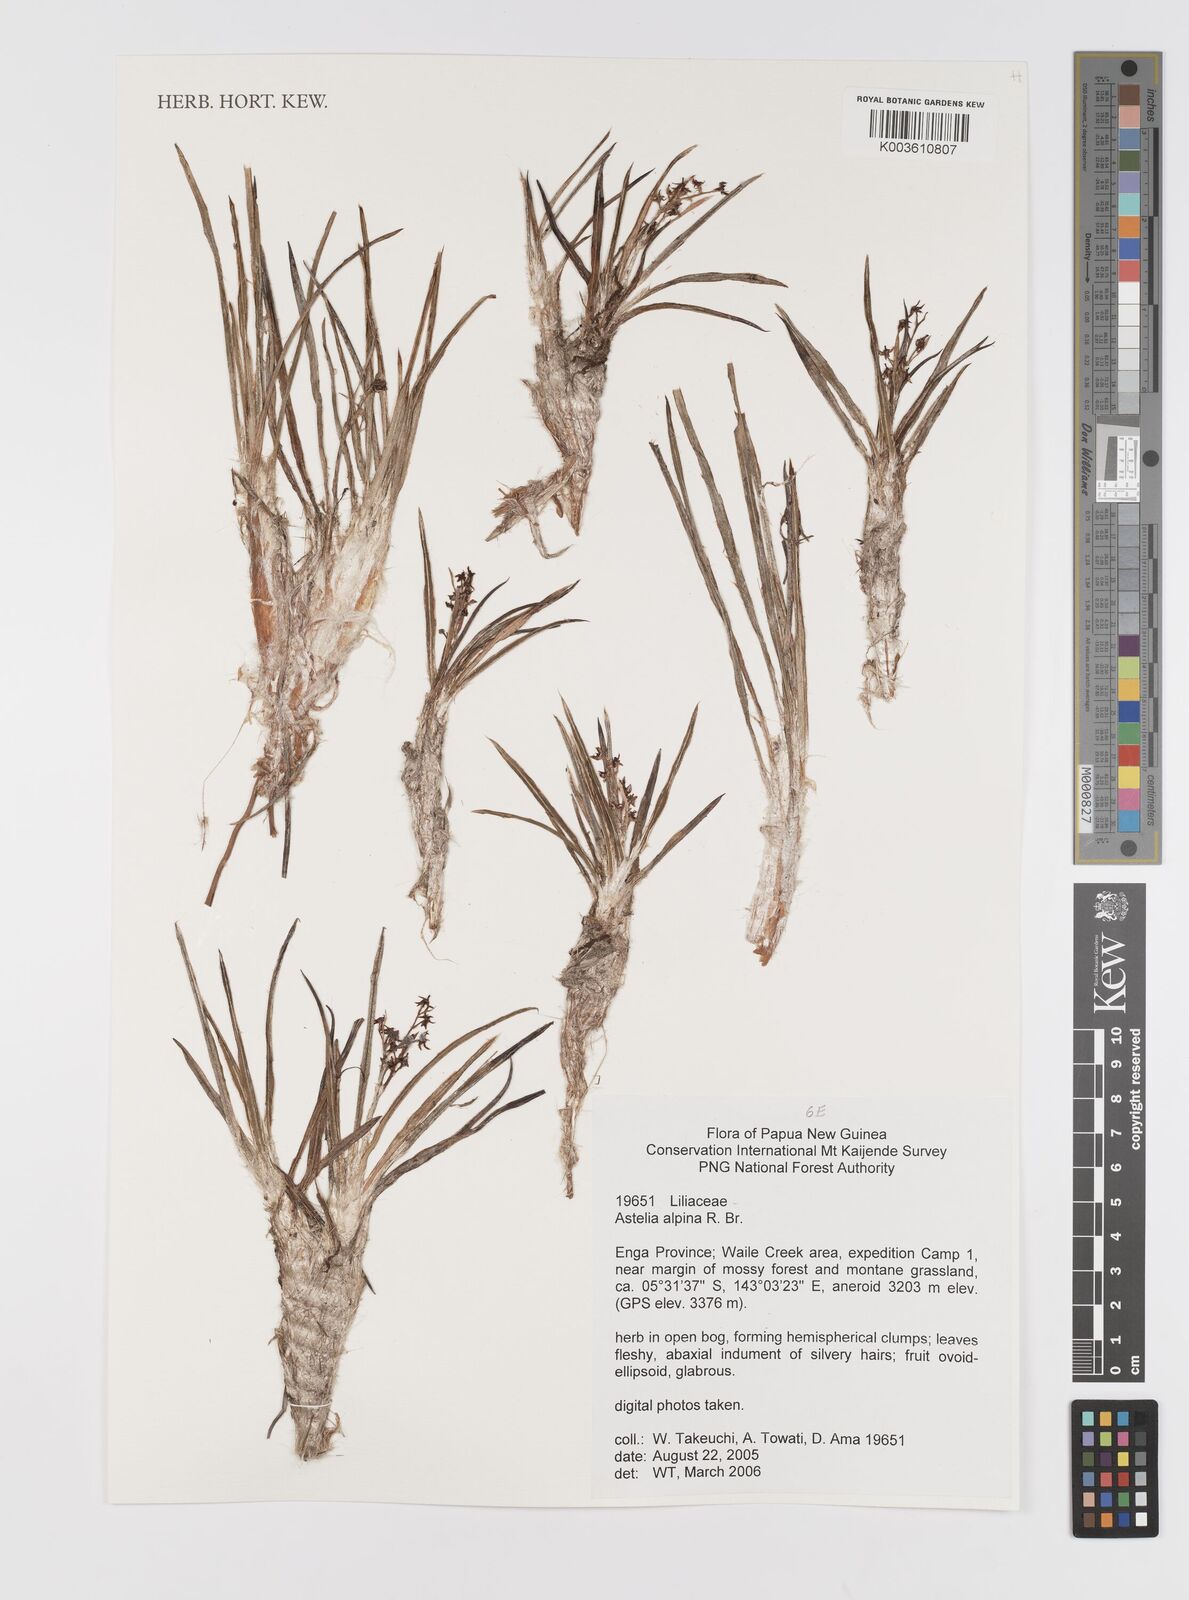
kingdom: Plantae
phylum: Tracheophyta
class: Liliopsida
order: Asparagales
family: Asteliaceae
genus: Astelia
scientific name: Astelia papuana
